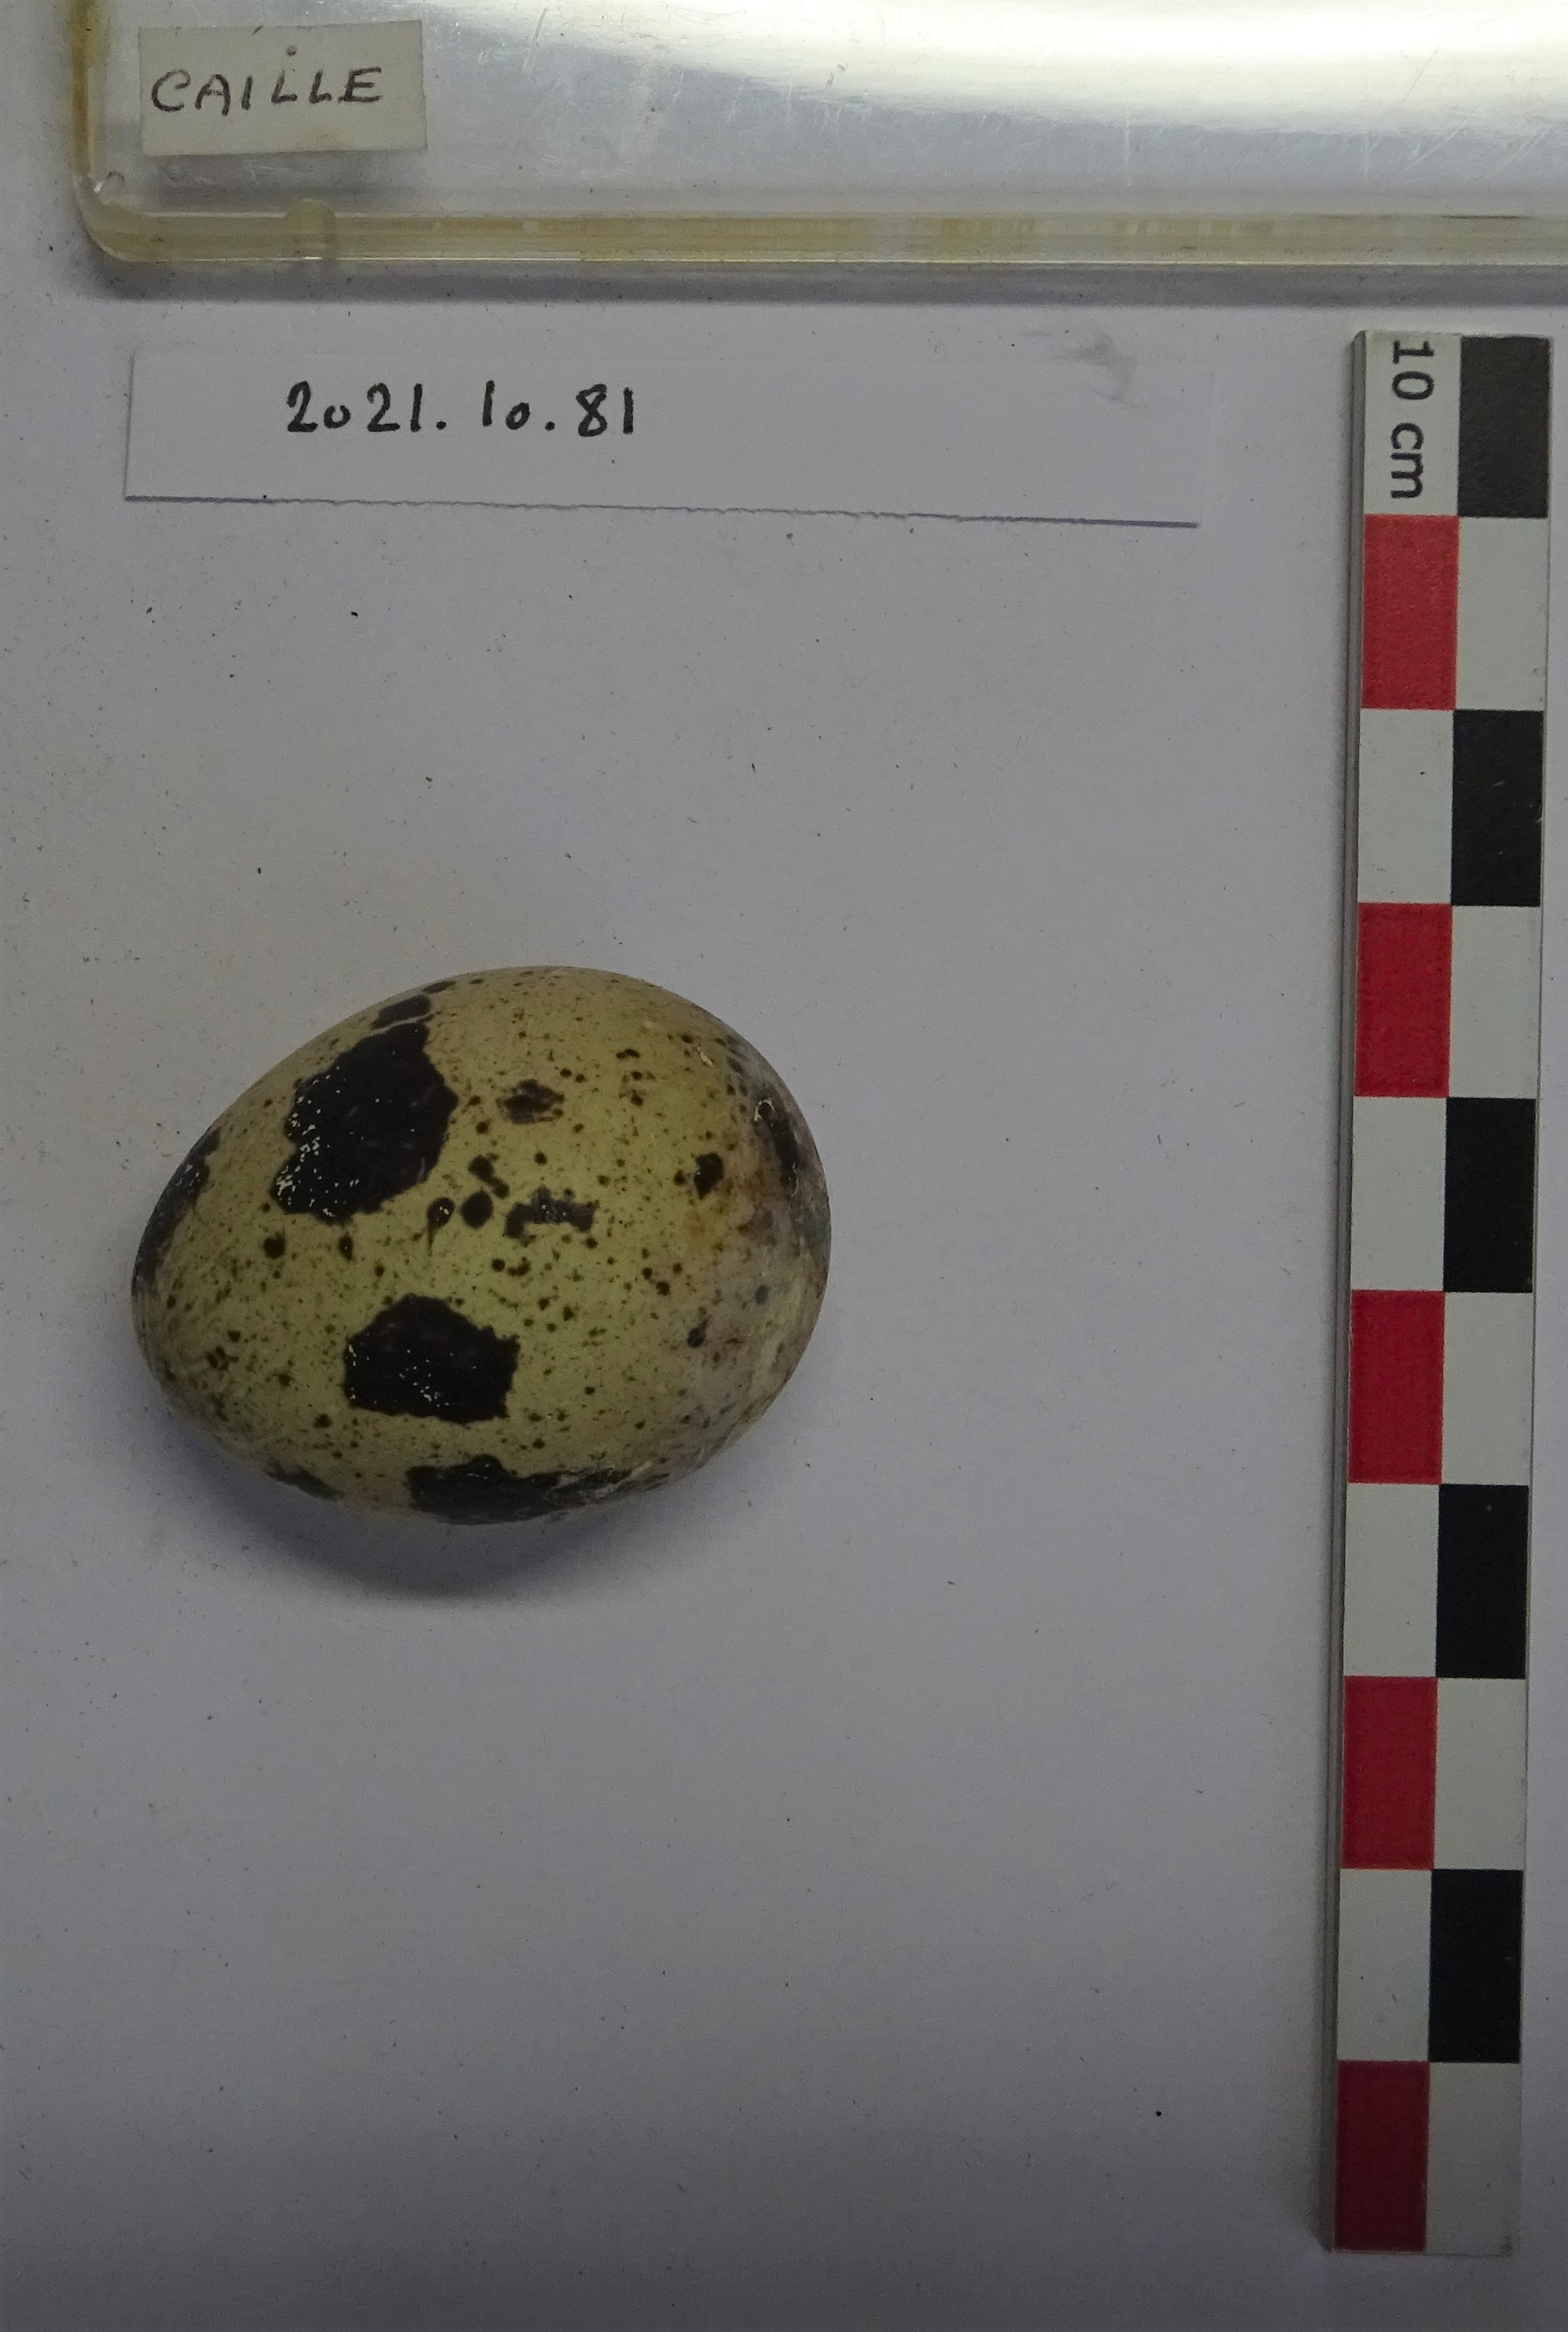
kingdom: Animalia
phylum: Chordata
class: Aves
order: Galliformes
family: Phasianidae
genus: Coturnix
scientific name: Coturnix coturnix
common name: Common quail
